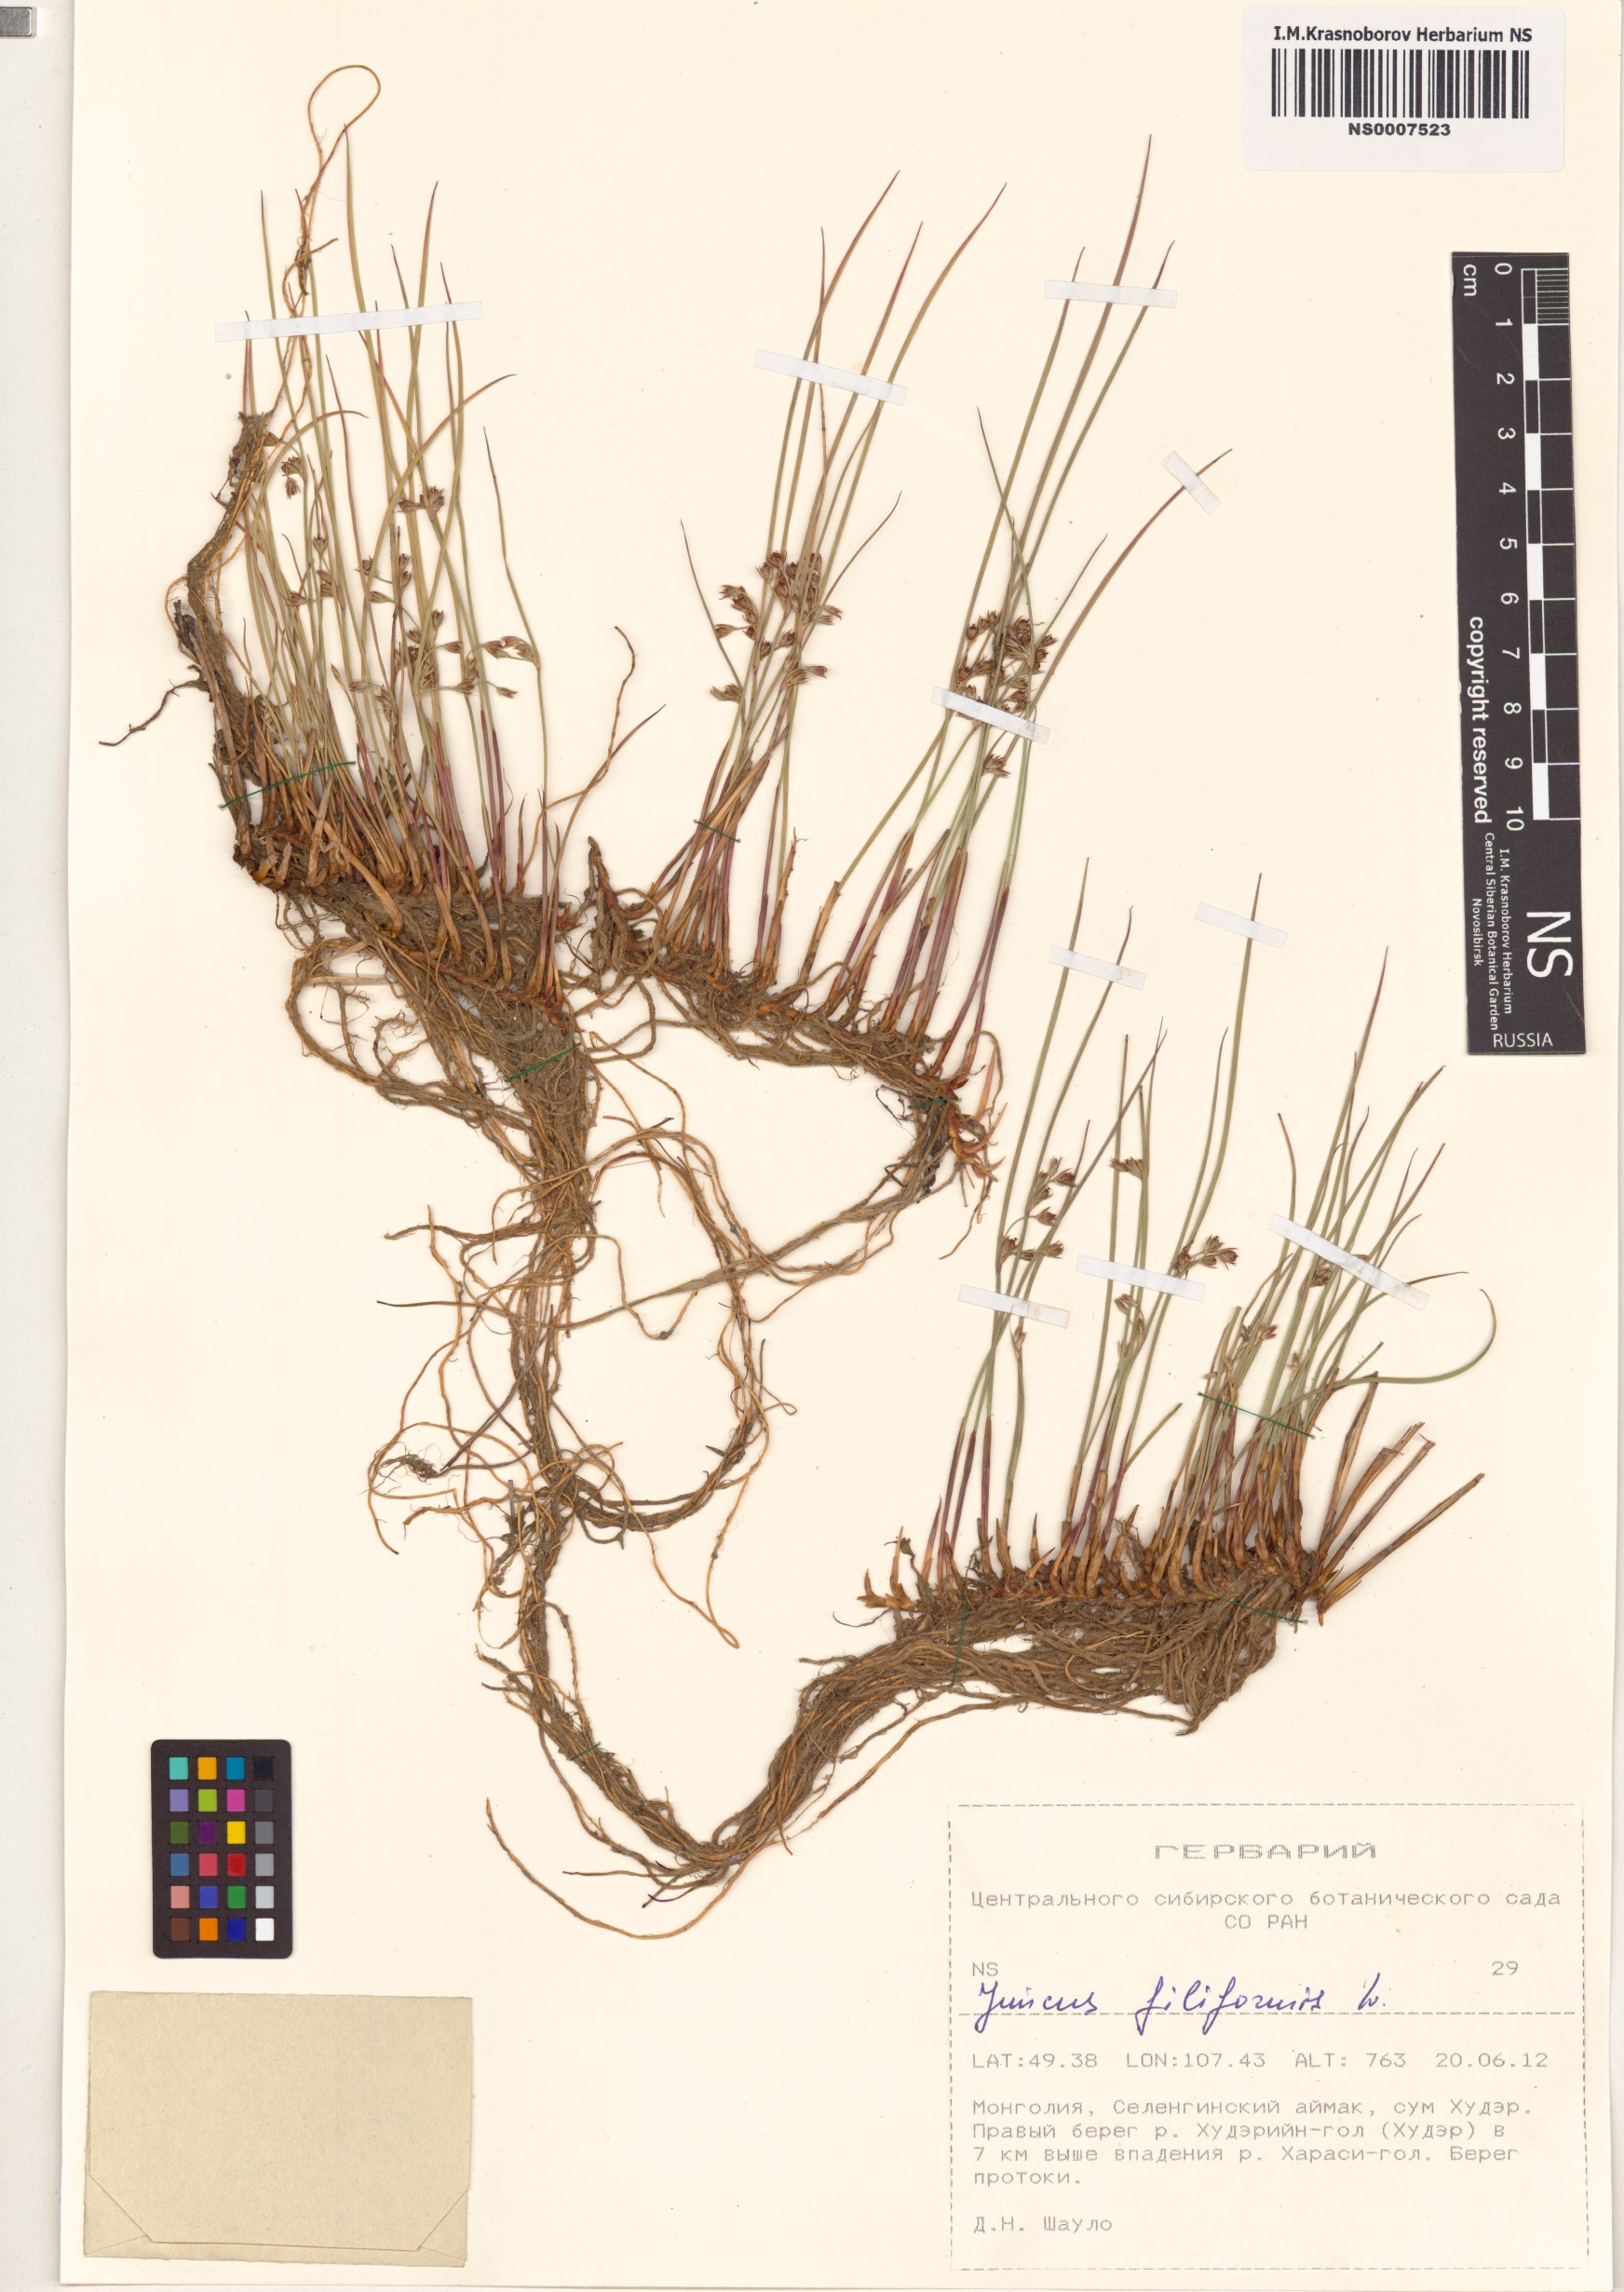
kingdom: Plantae
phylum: Tracheophyta
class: Liliopsida
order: Poales
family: Juncaceae
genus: Juncus
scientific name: Juncus filiformis
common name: Thread rush
